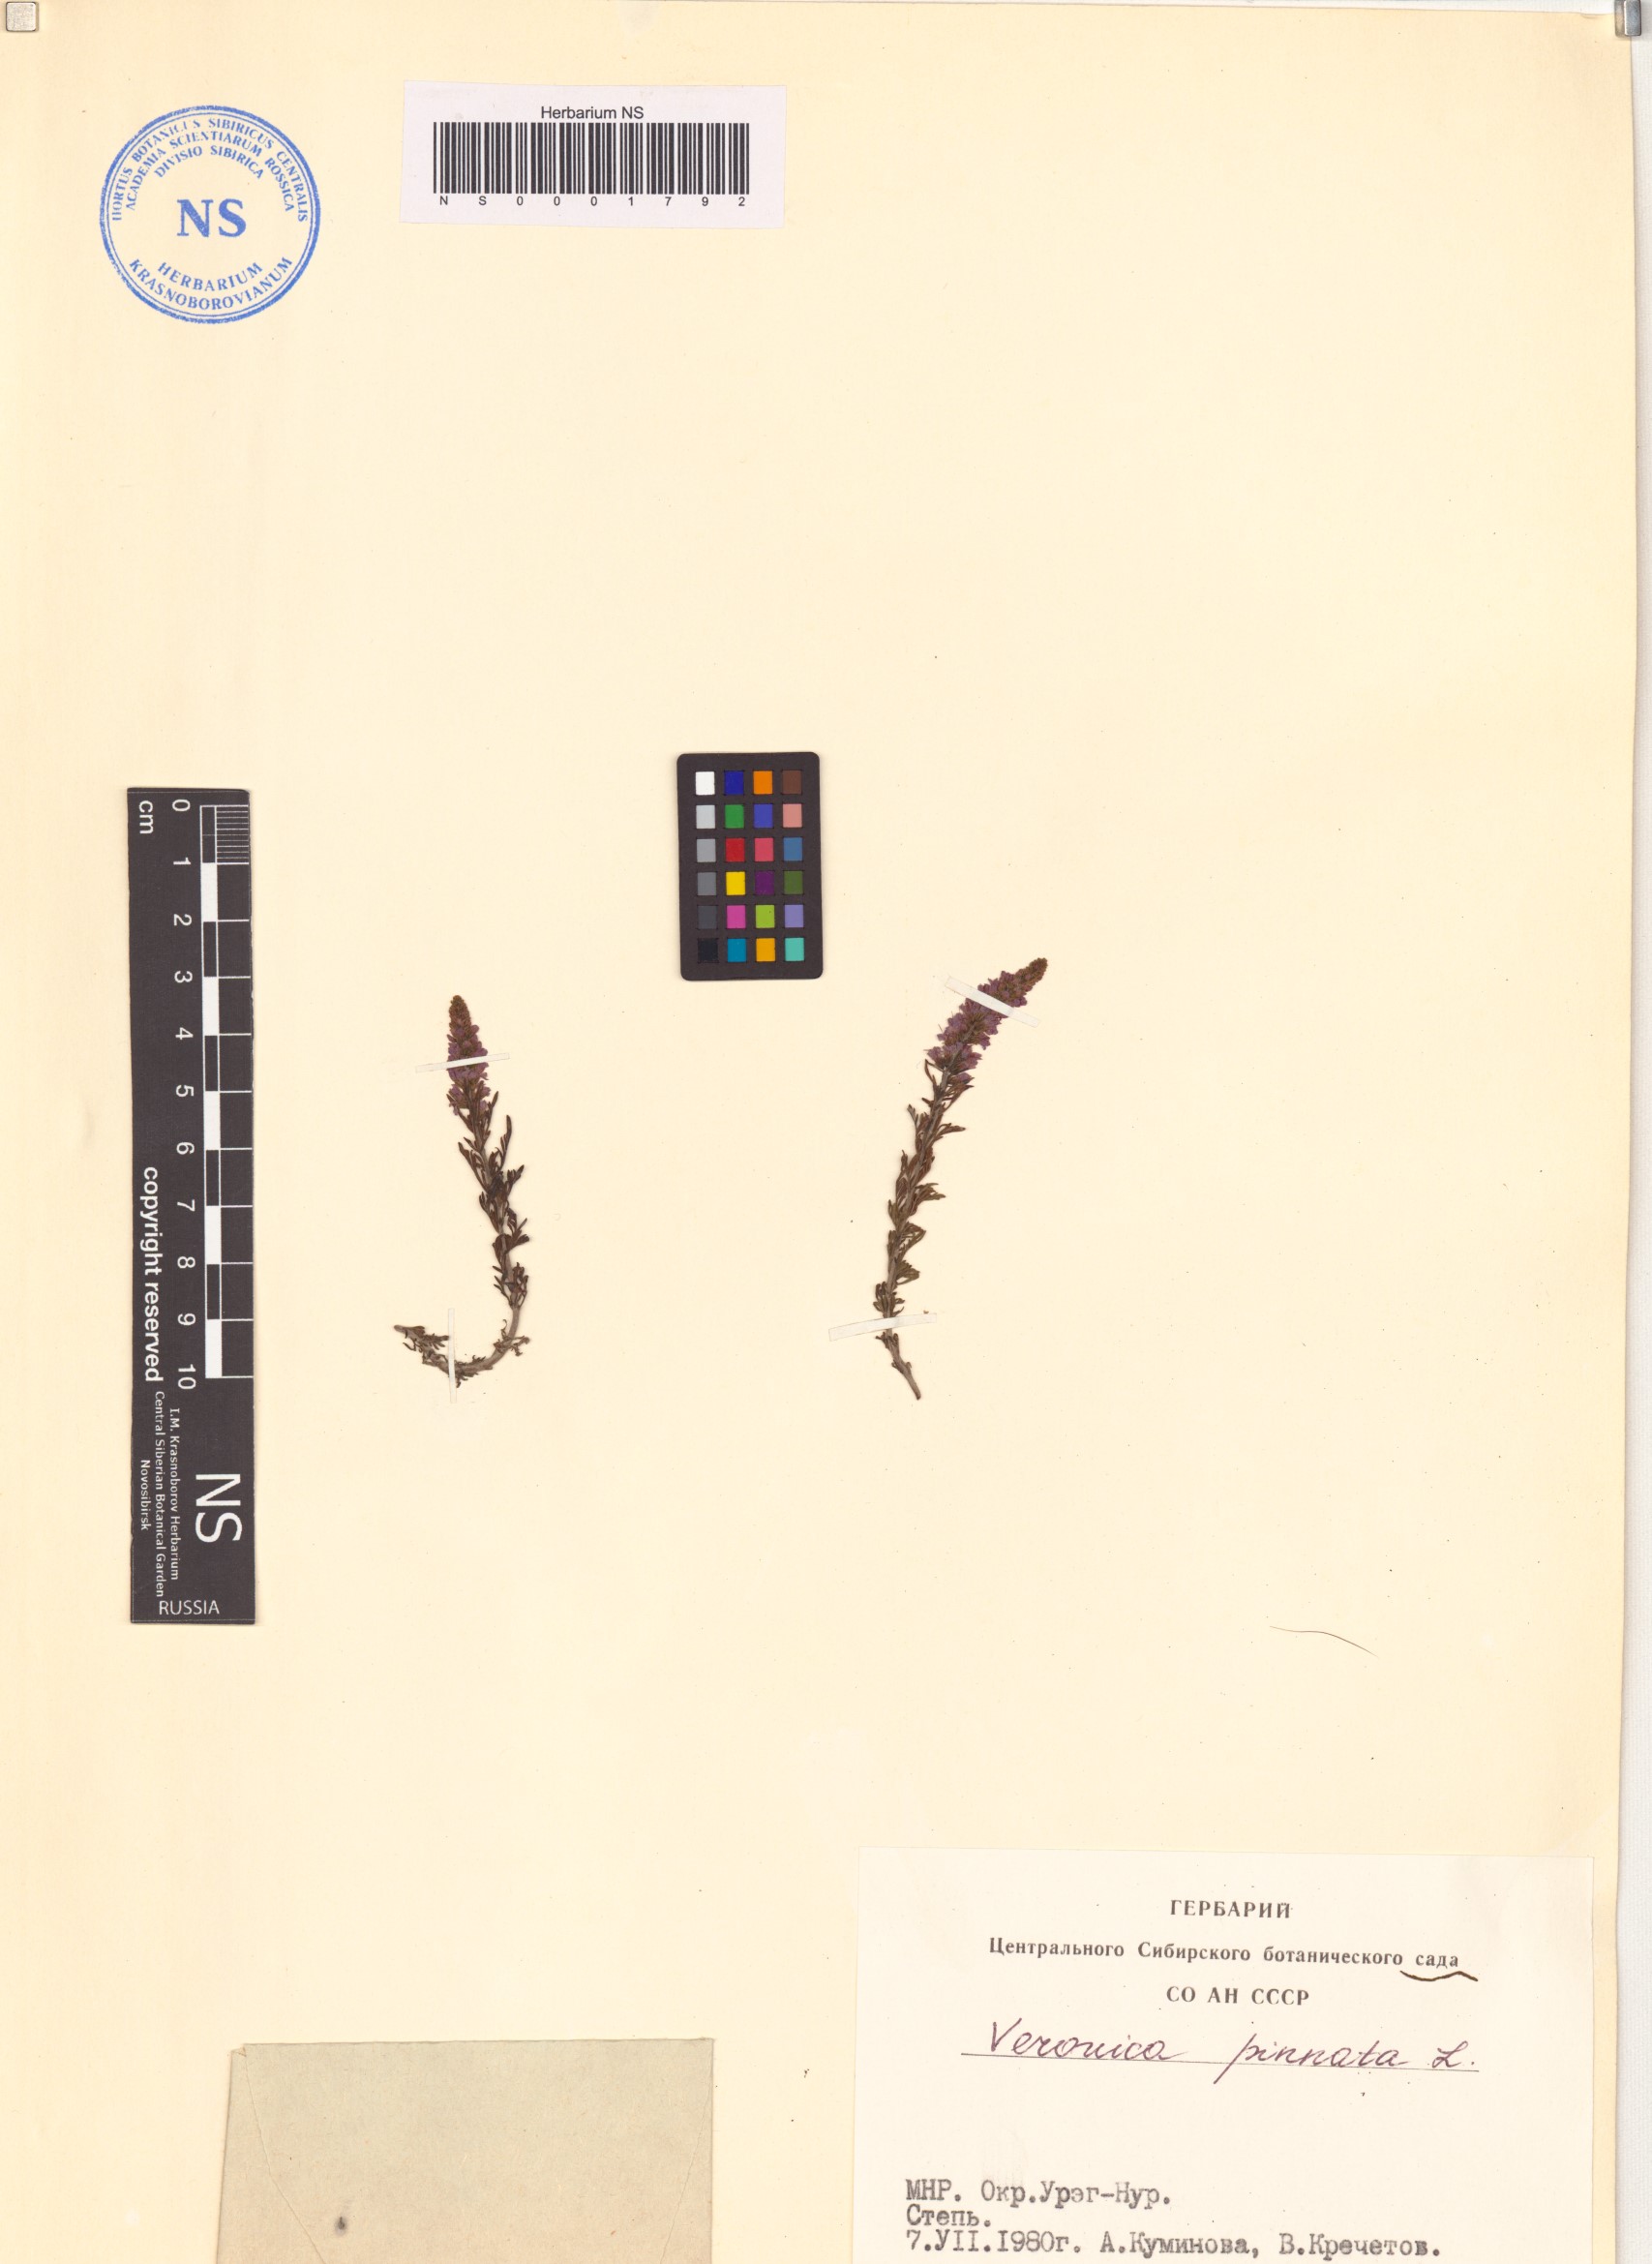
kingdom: Plantae
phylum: Tracheophyta
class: Magnoliopsida
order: Lamiales
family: Plantaginaceae
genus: Veronica
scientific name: Veronica pinnata
